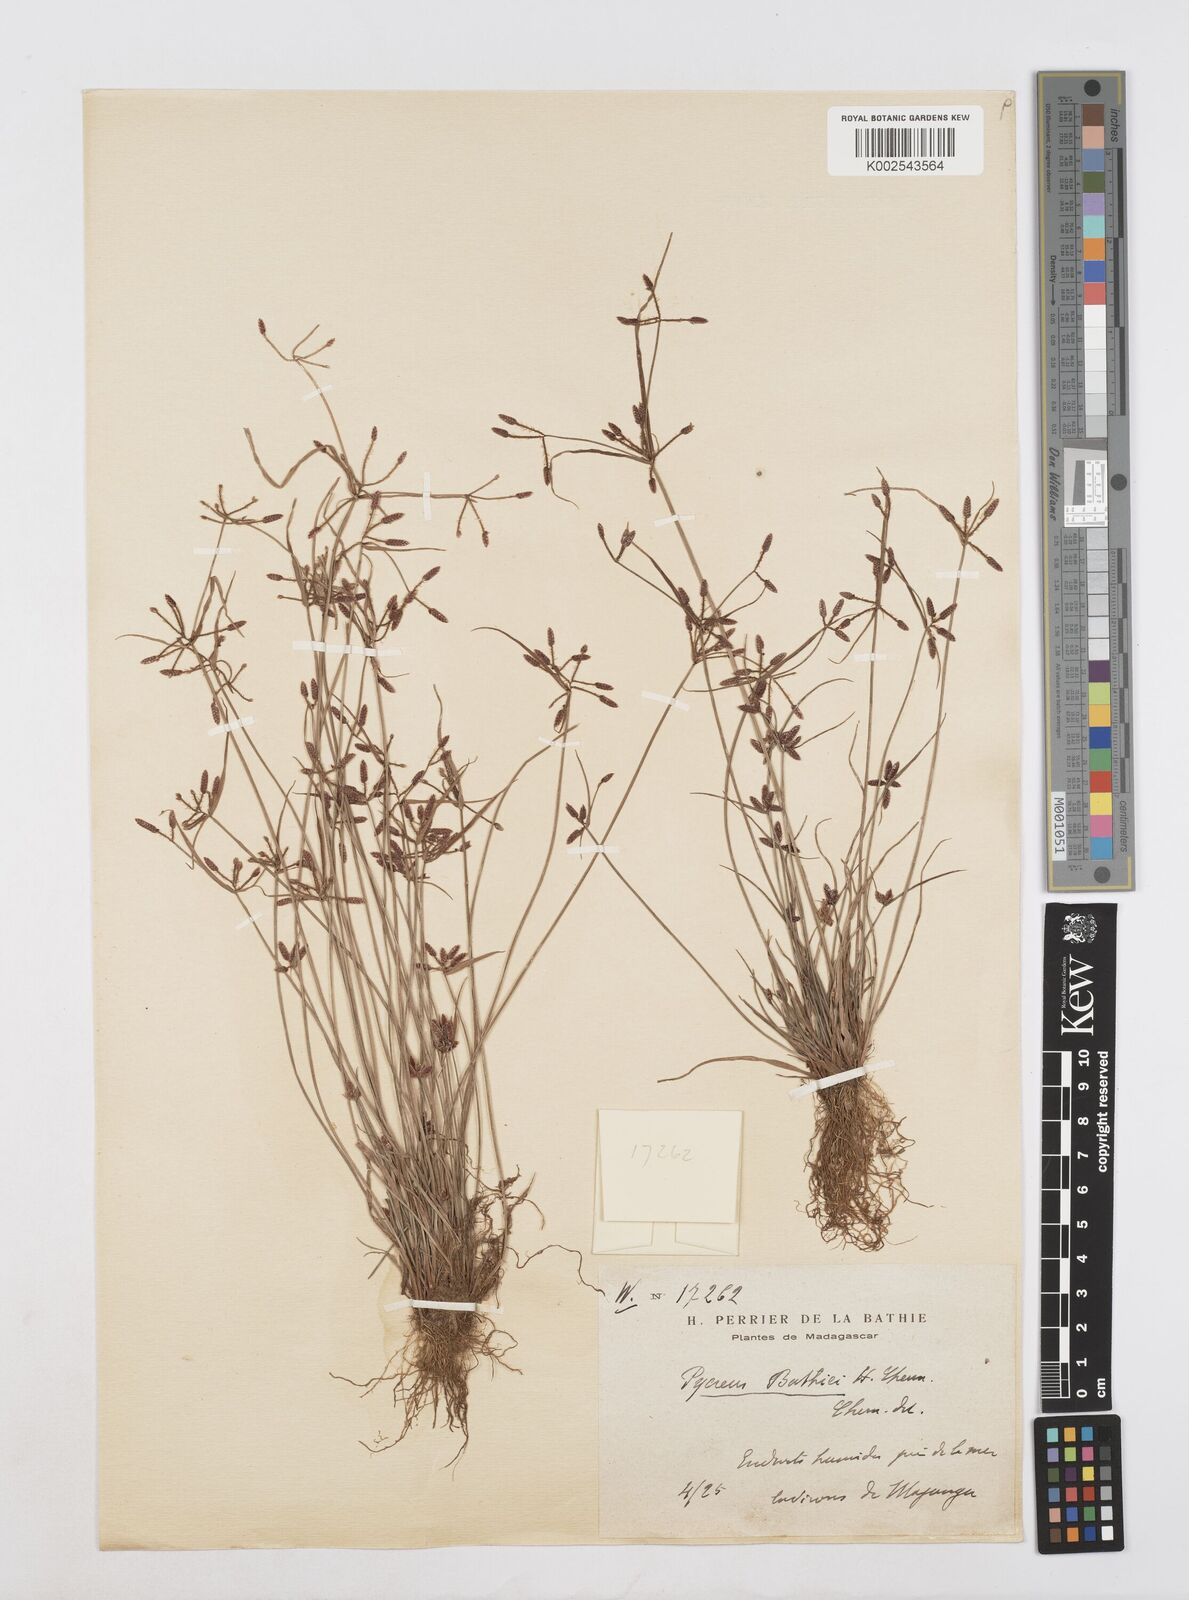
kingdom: Plantae
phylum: Tracheophyta
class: Liliopsida
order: Poales
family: Cyperaceae
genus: Cyperus
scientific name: Cyperus flavescens
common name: Yellow galingale
